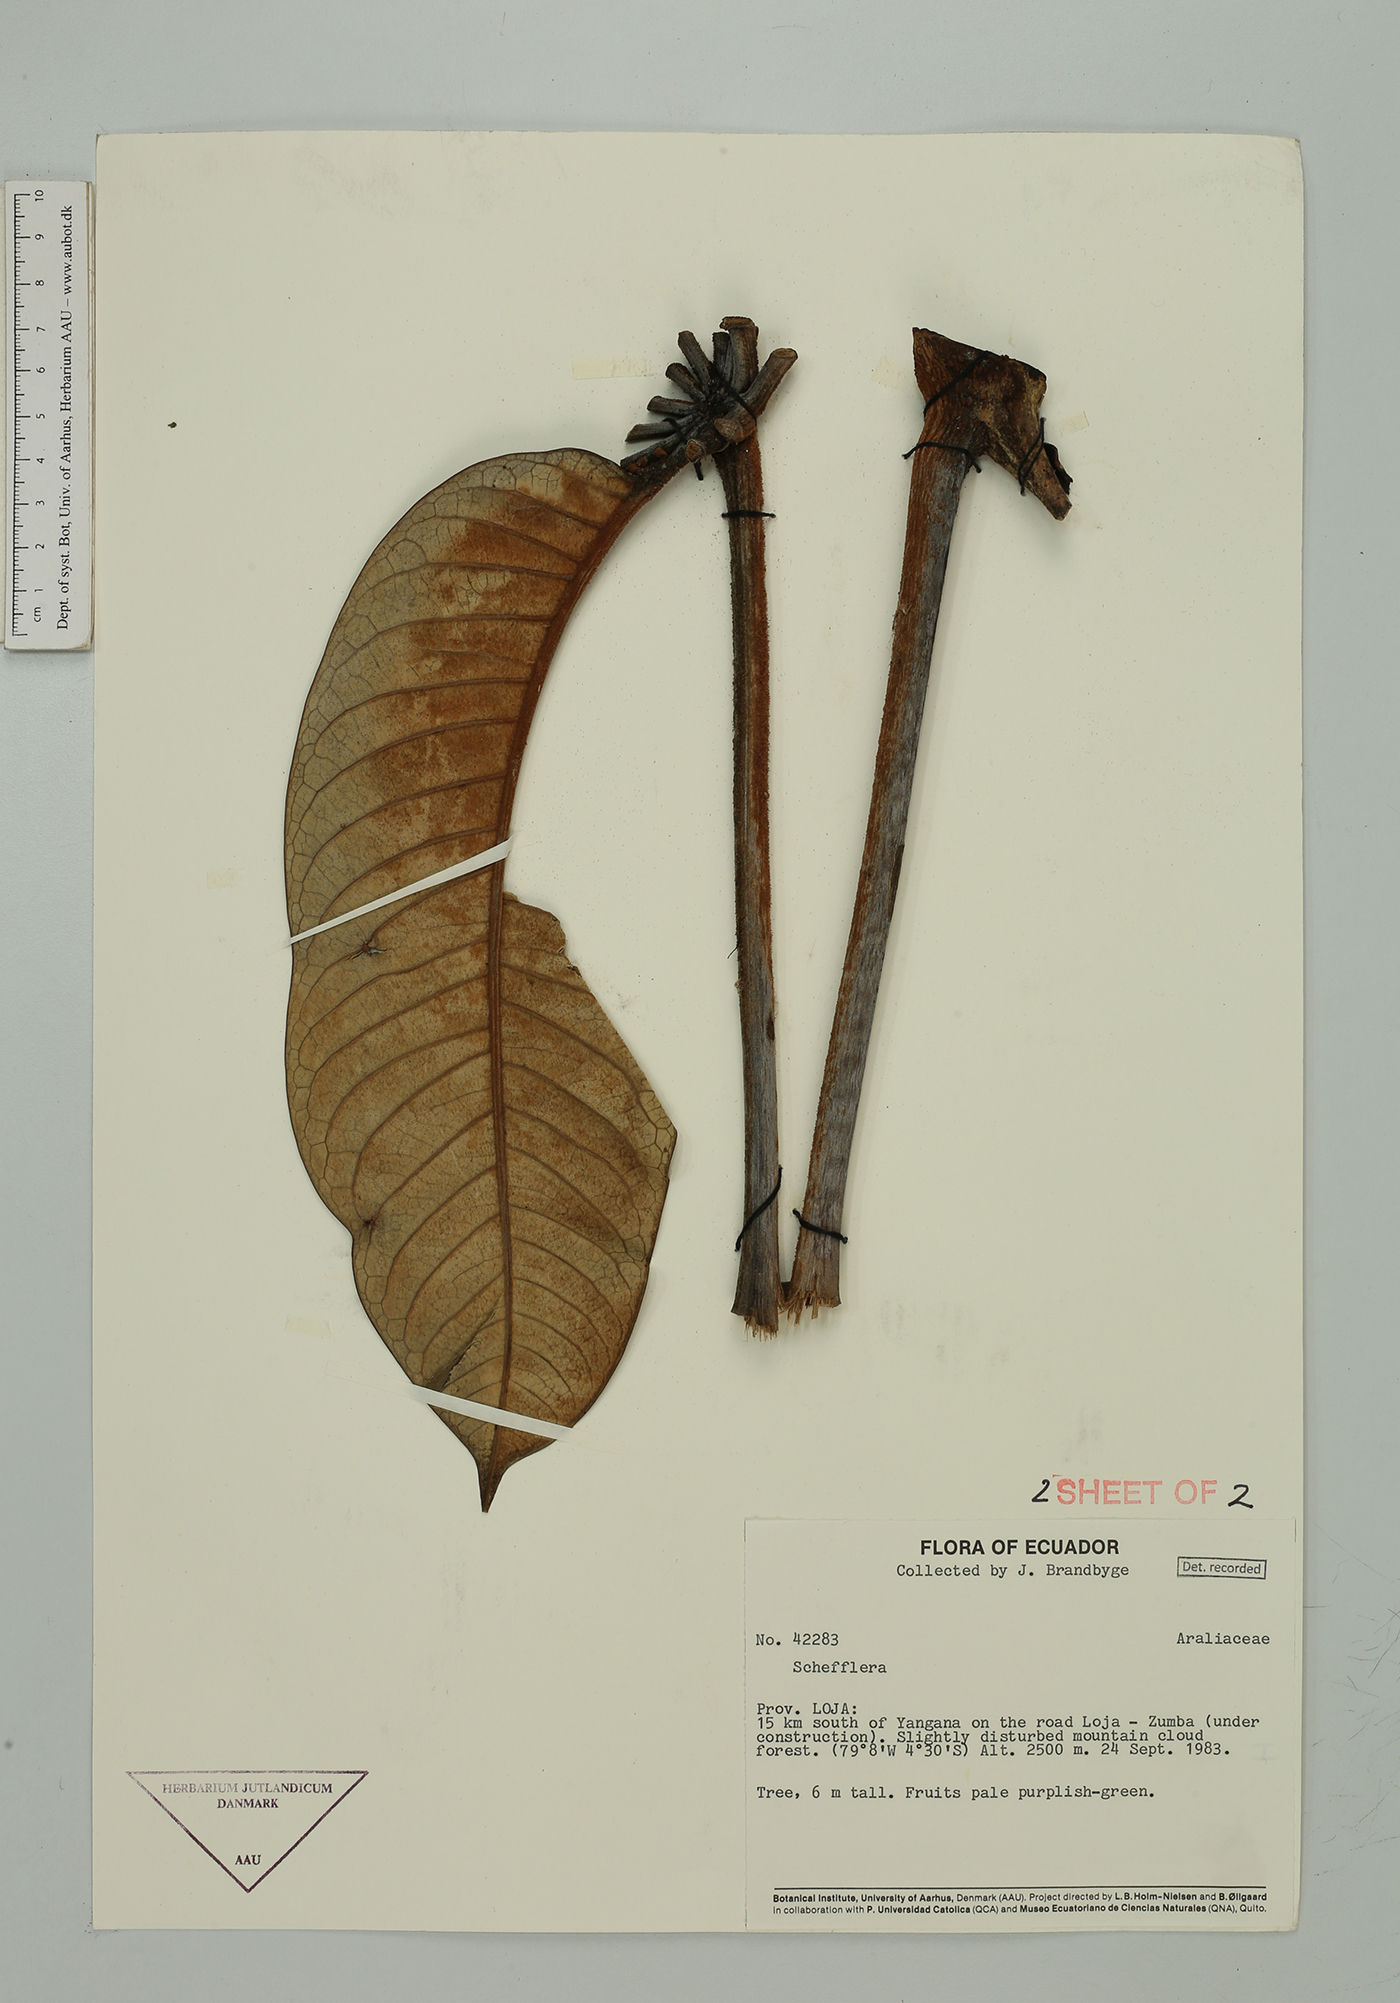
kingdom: Plantae
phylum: Tracheophyta
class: Magnoliopsida
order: Apiales
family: Araliaceae
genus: Sciodaphyllum
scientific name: Sciodaphyllum
